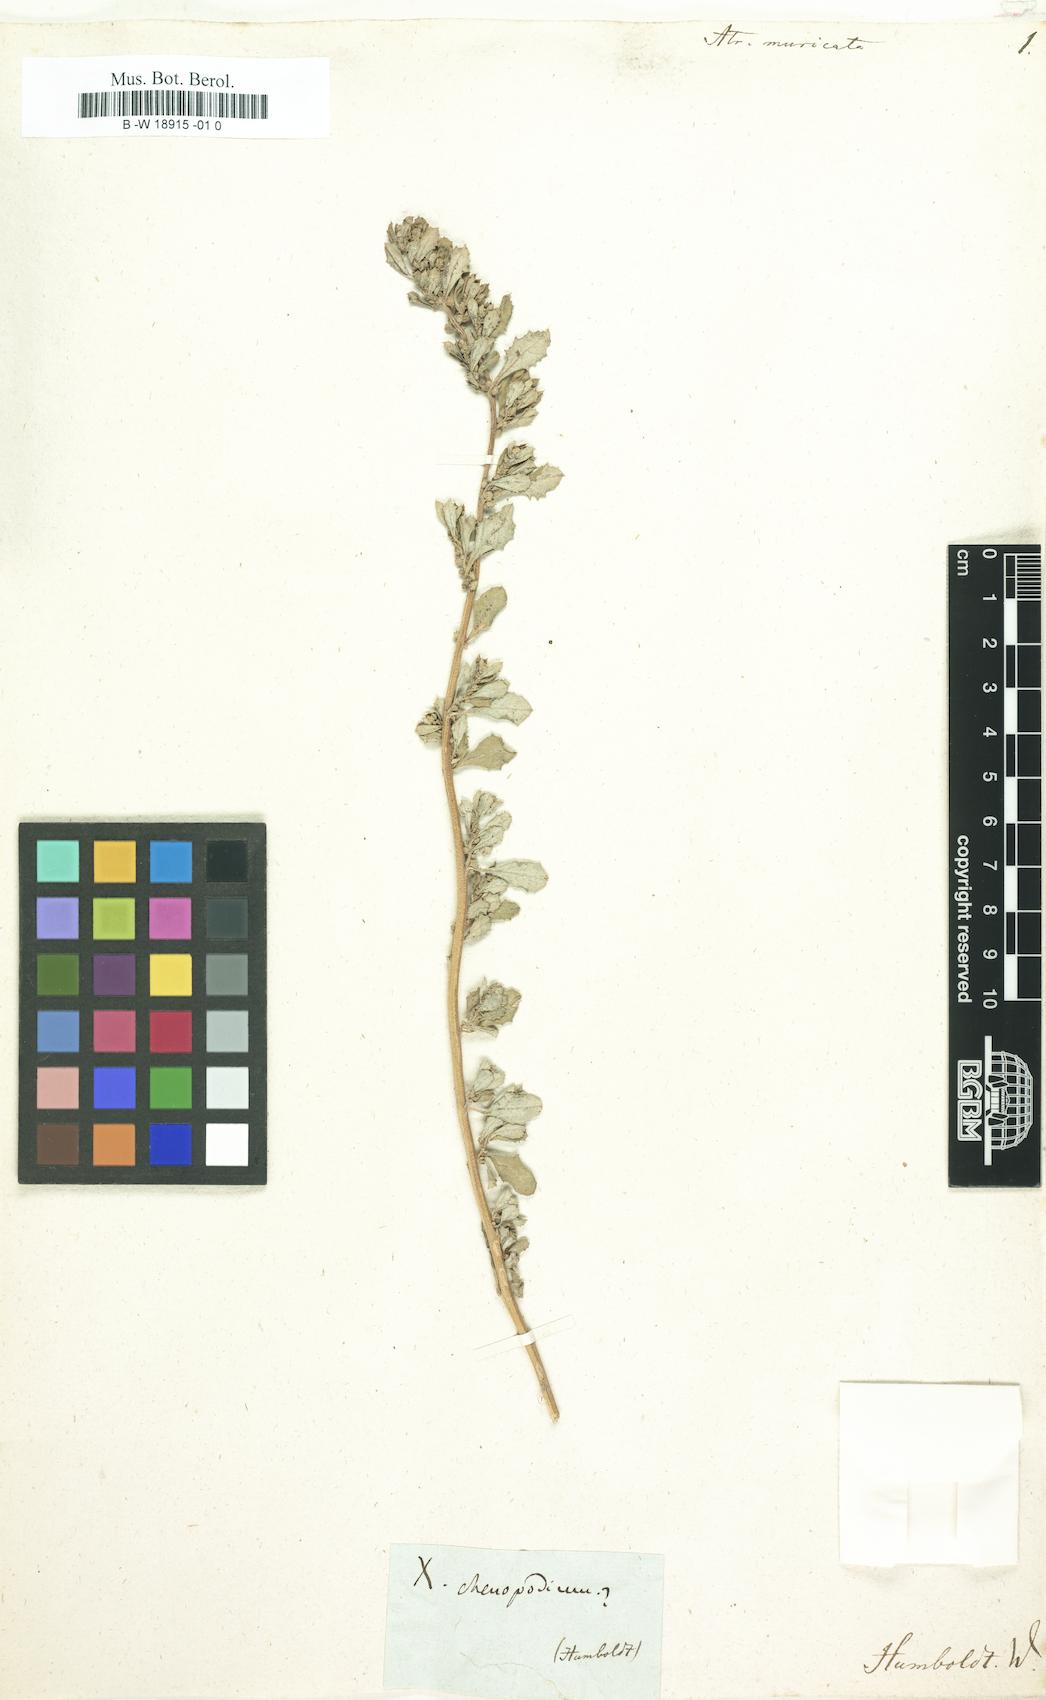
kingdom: Plantae
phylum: Tracheophyta
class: Magnoliopsida
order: Caryophyllales
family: Amaranthaceae
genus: Atriplex
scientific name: Atriplex muricata
